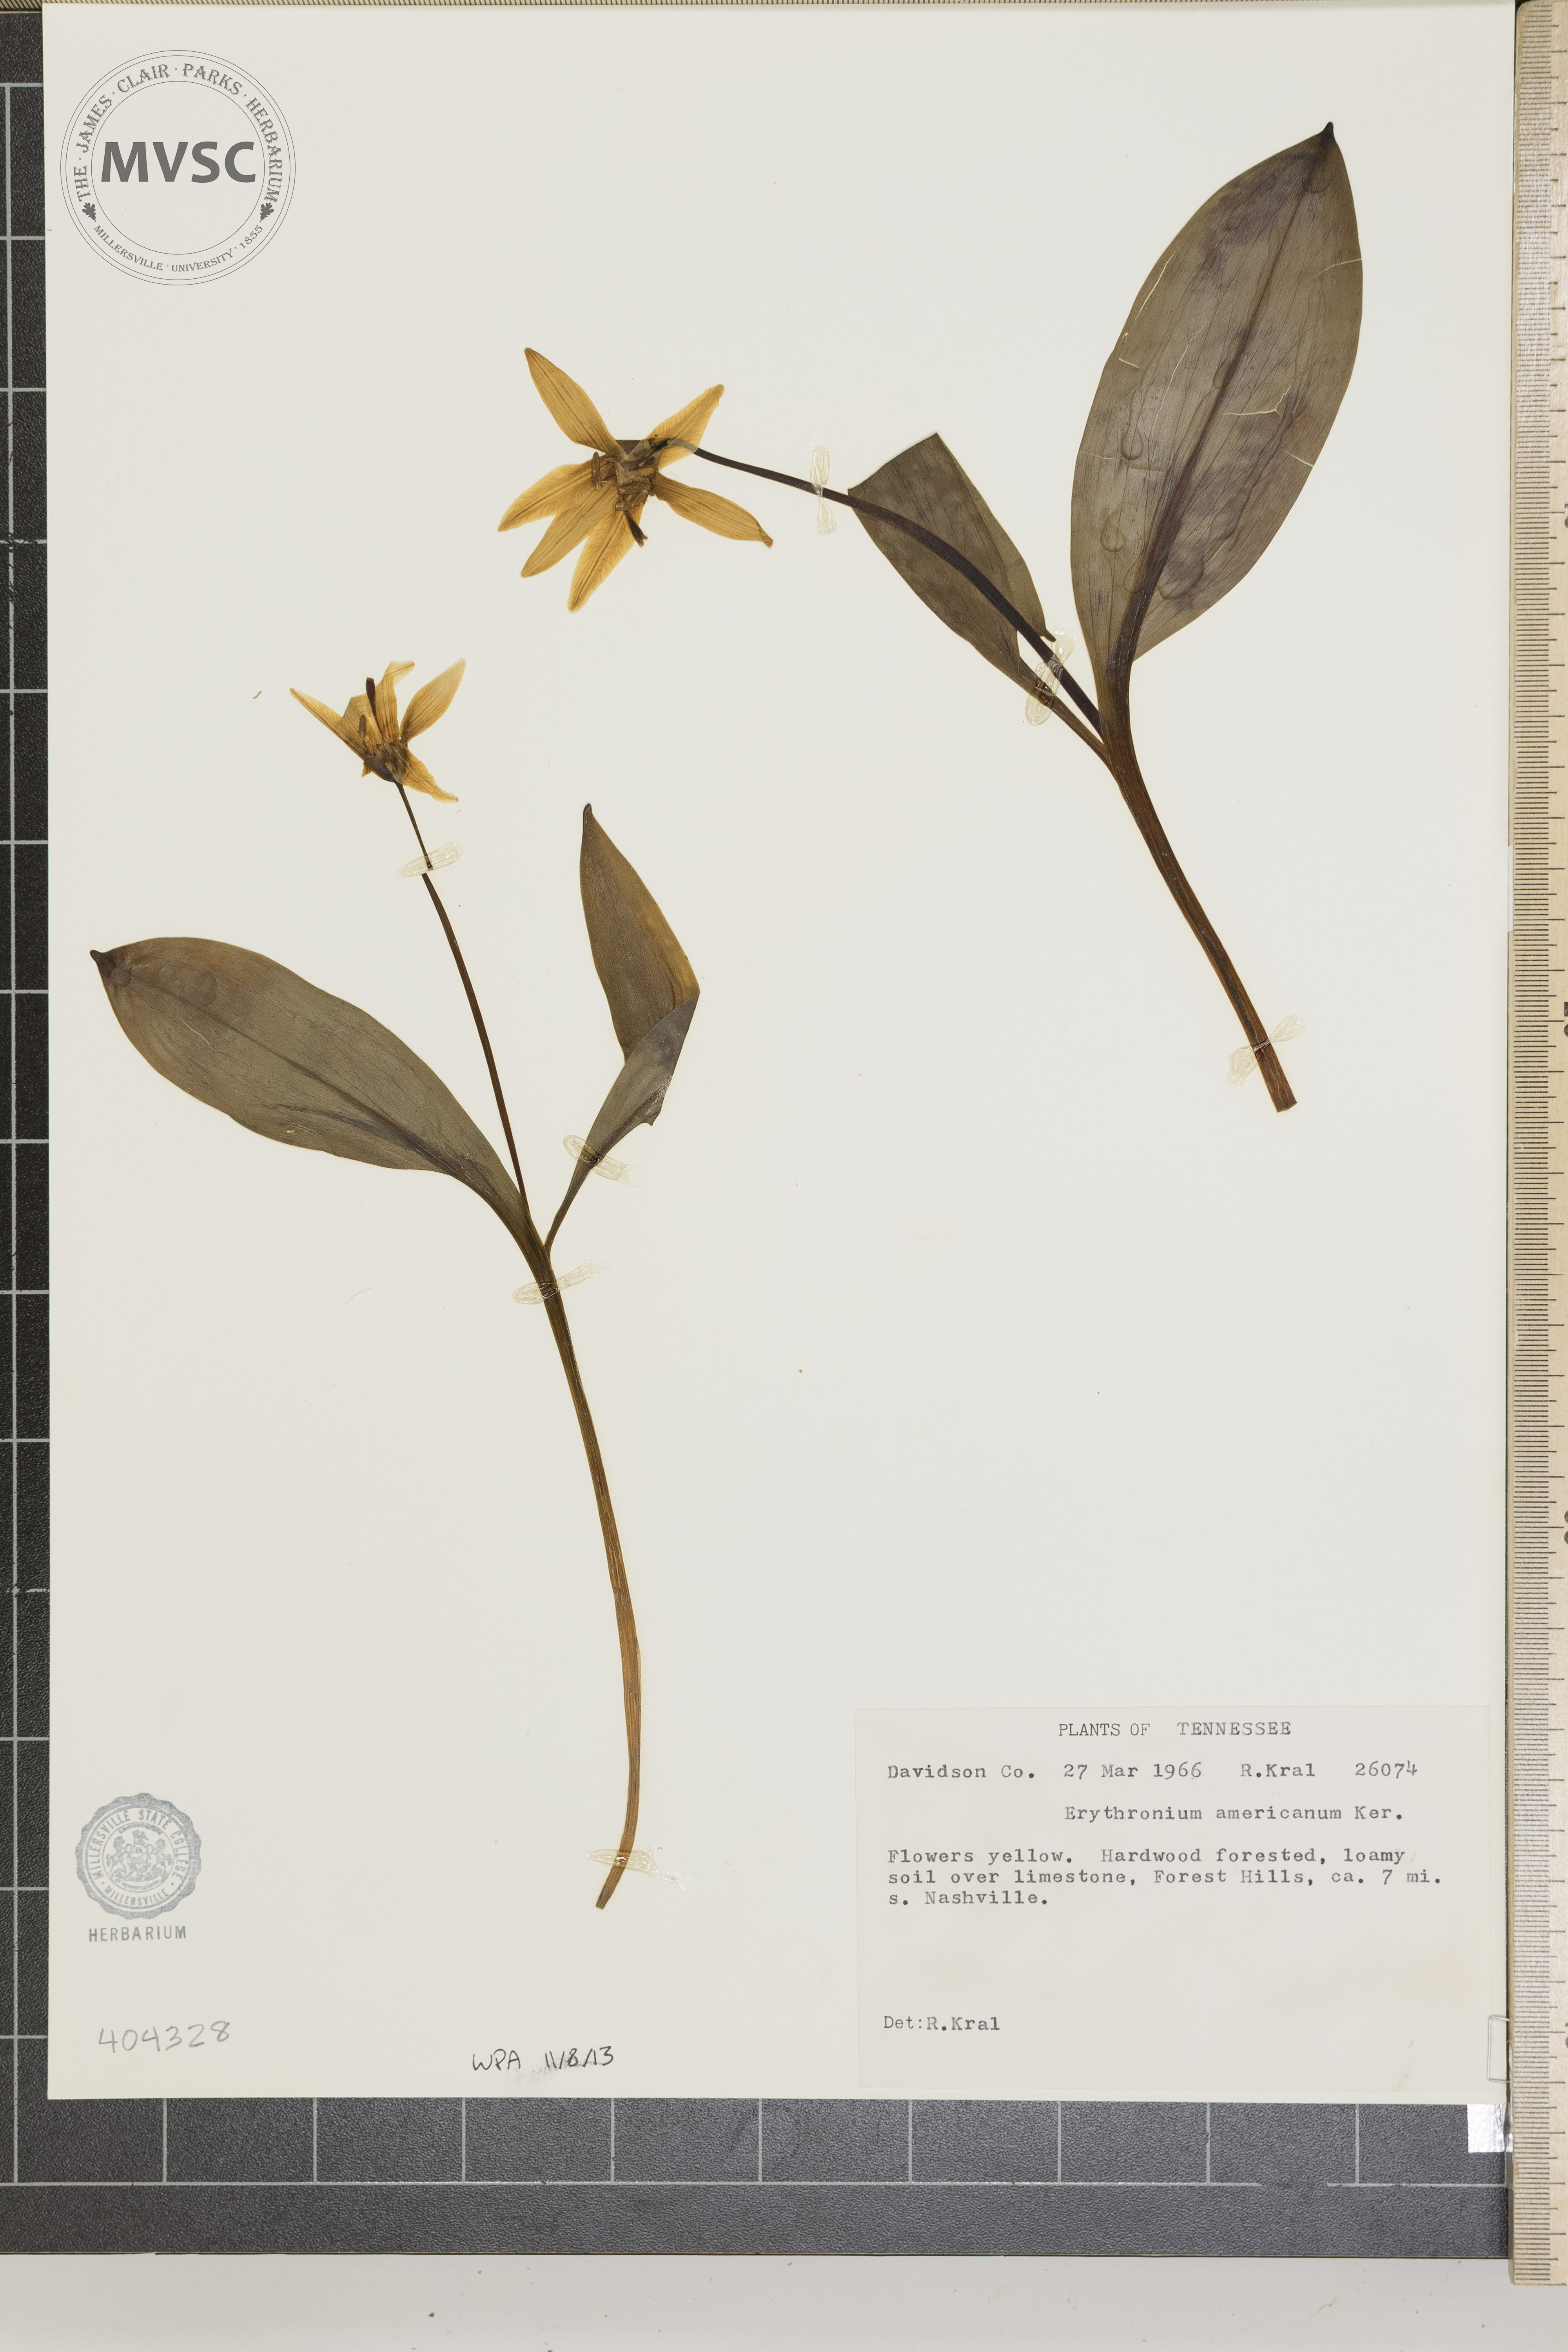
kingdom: Plantae
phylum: Tracheophyta
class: Liliopsida
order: Liliales
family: Liliaceae
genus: Erythronium
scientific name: Erythronium americanum
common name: Yellow adder's-tongue
